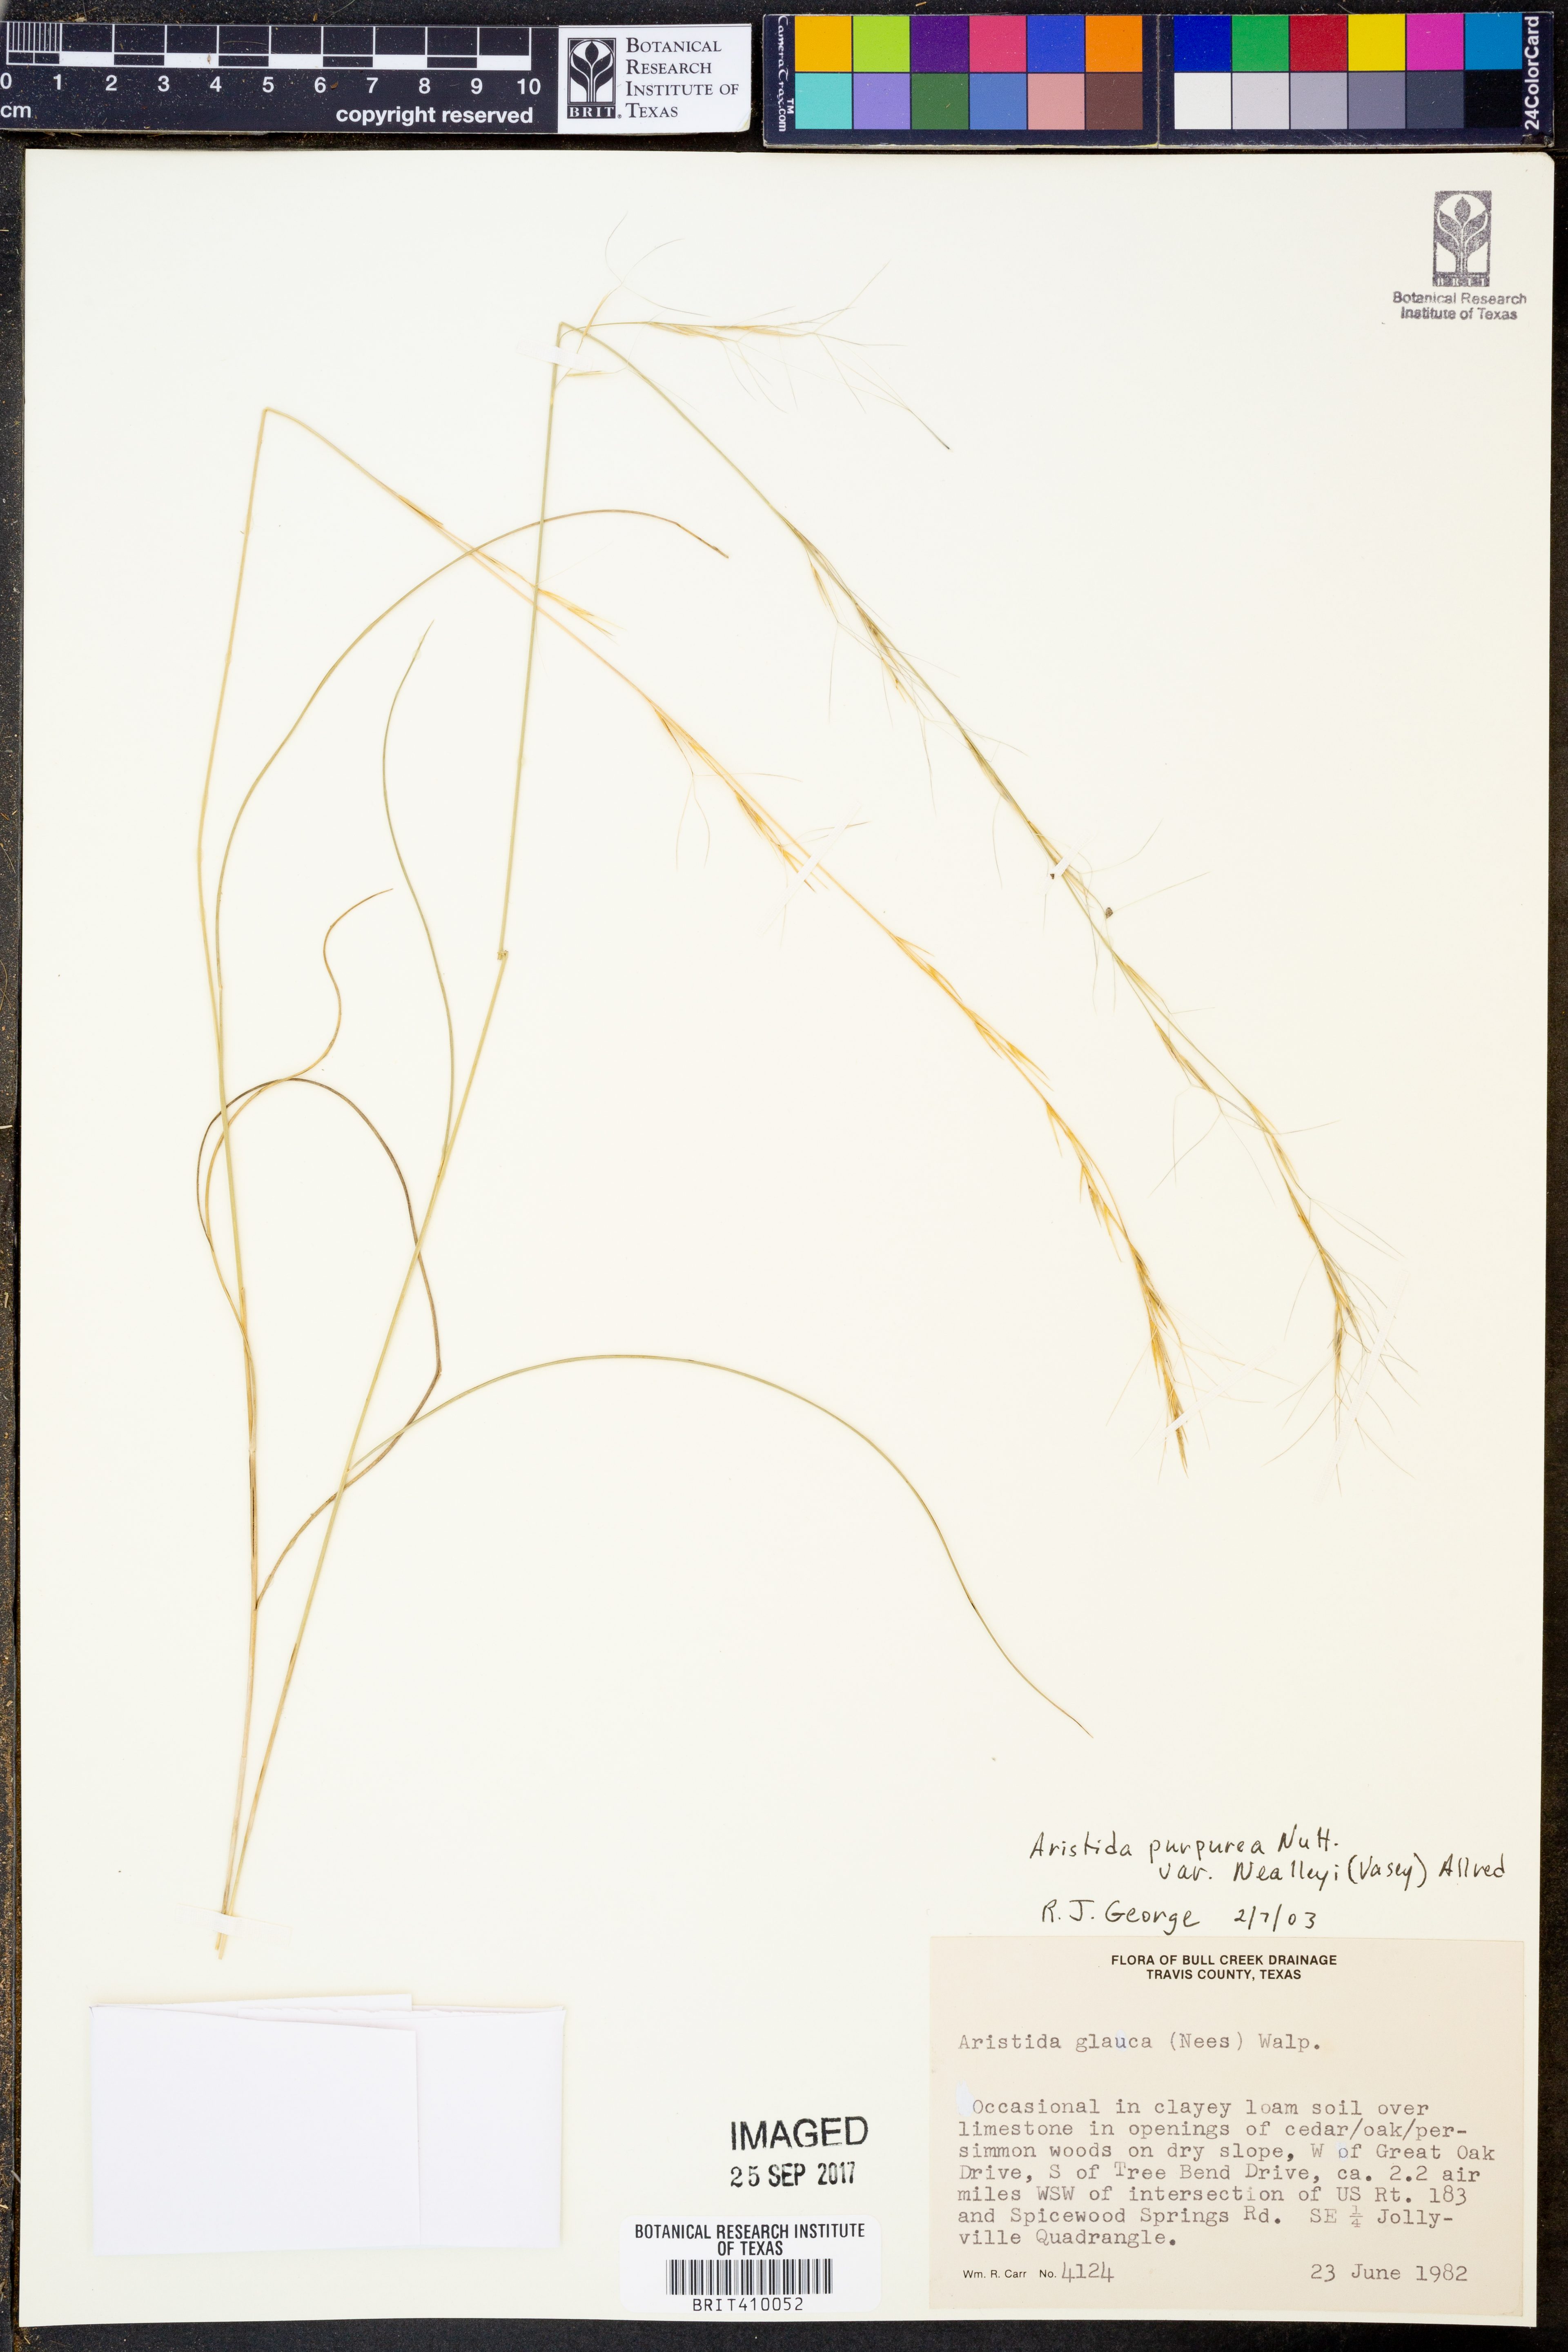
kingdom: Plantae
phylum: Tracheophyta
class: Liliopsida
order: Poales
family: Poaceae
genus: Aristida
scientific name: Aristida glauca
